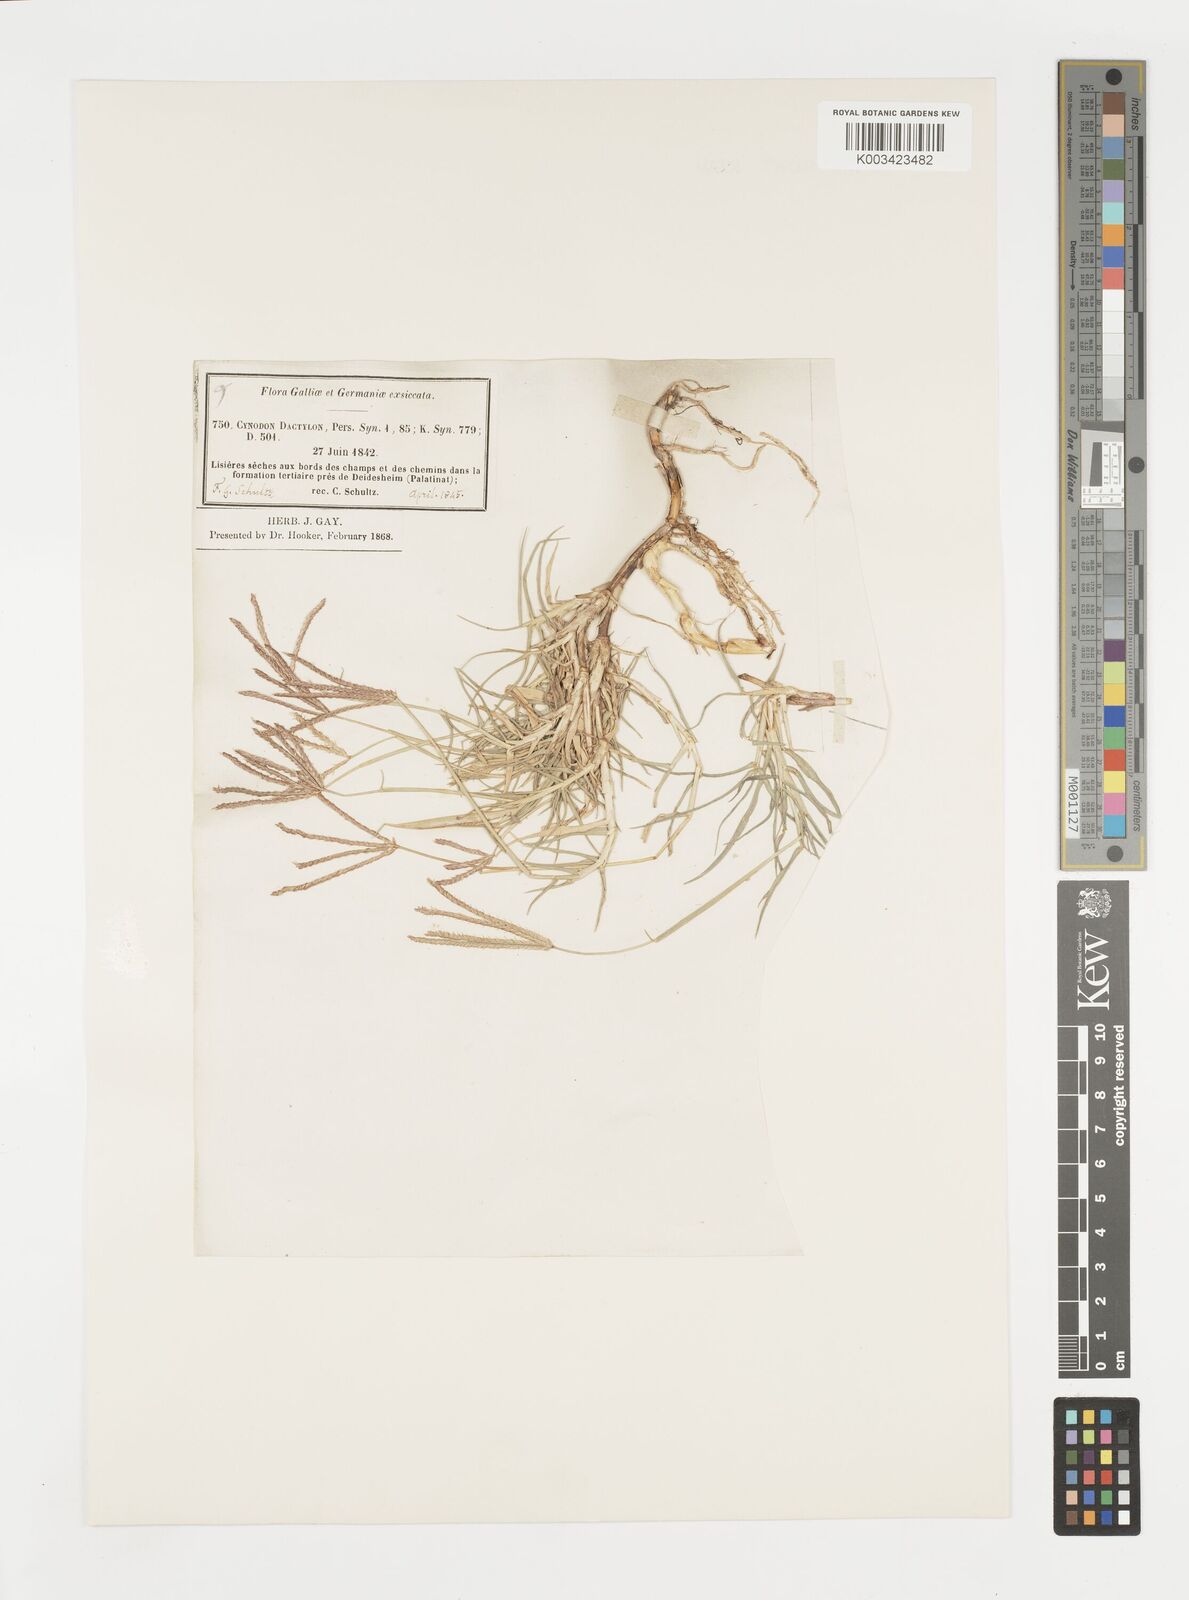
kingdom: Plantae
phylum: Tracheophyta
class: Liliopsida
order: Poales
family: Poaceae
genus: Cynodon
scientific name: Cynodon dactylon
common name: Bermuda grass
